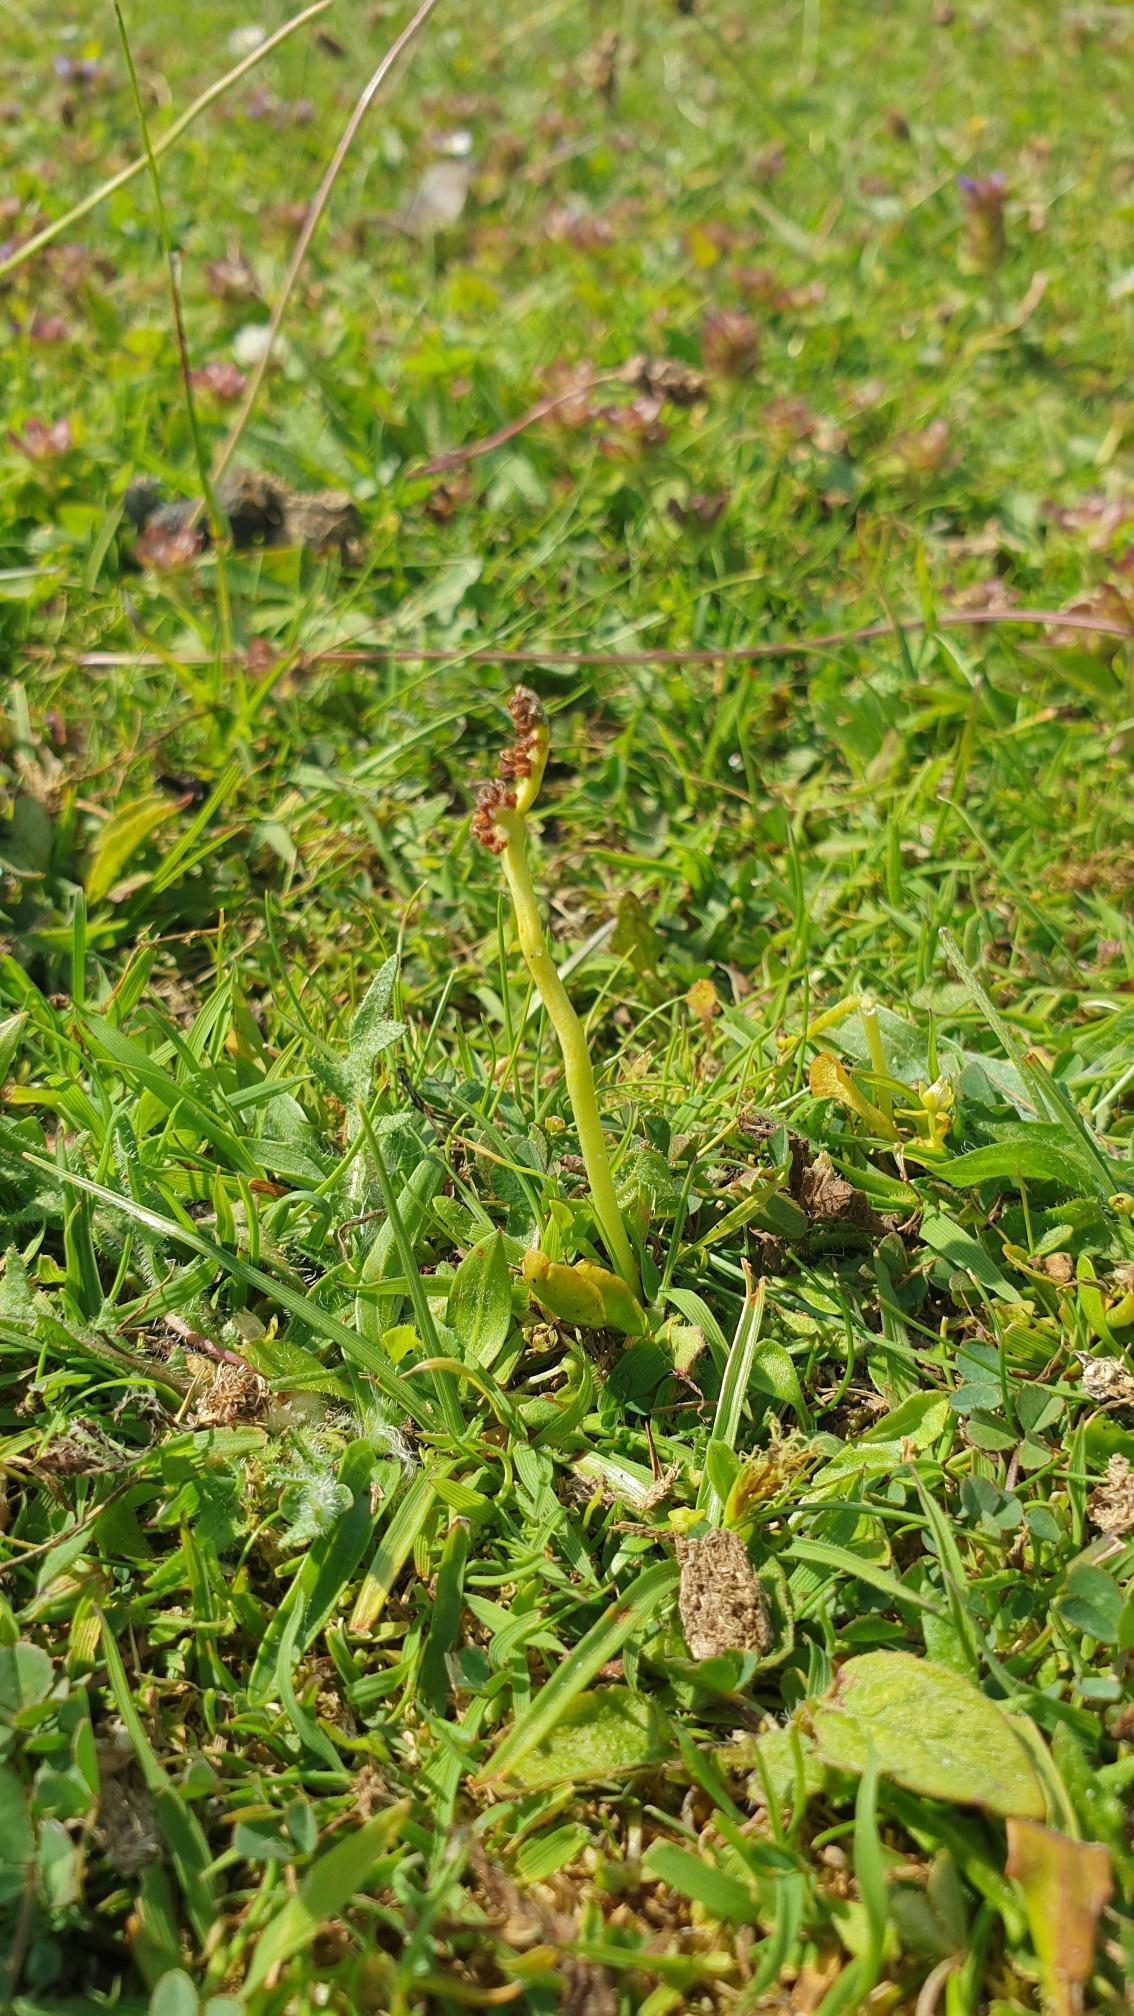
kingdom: Plantae
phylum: Tracheophyta
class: Polypodiopsida
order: Ophioglossales
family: Ophioglossaceae
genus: Botrychium
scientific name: Botrychium simplex
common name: Enkelt månerude
